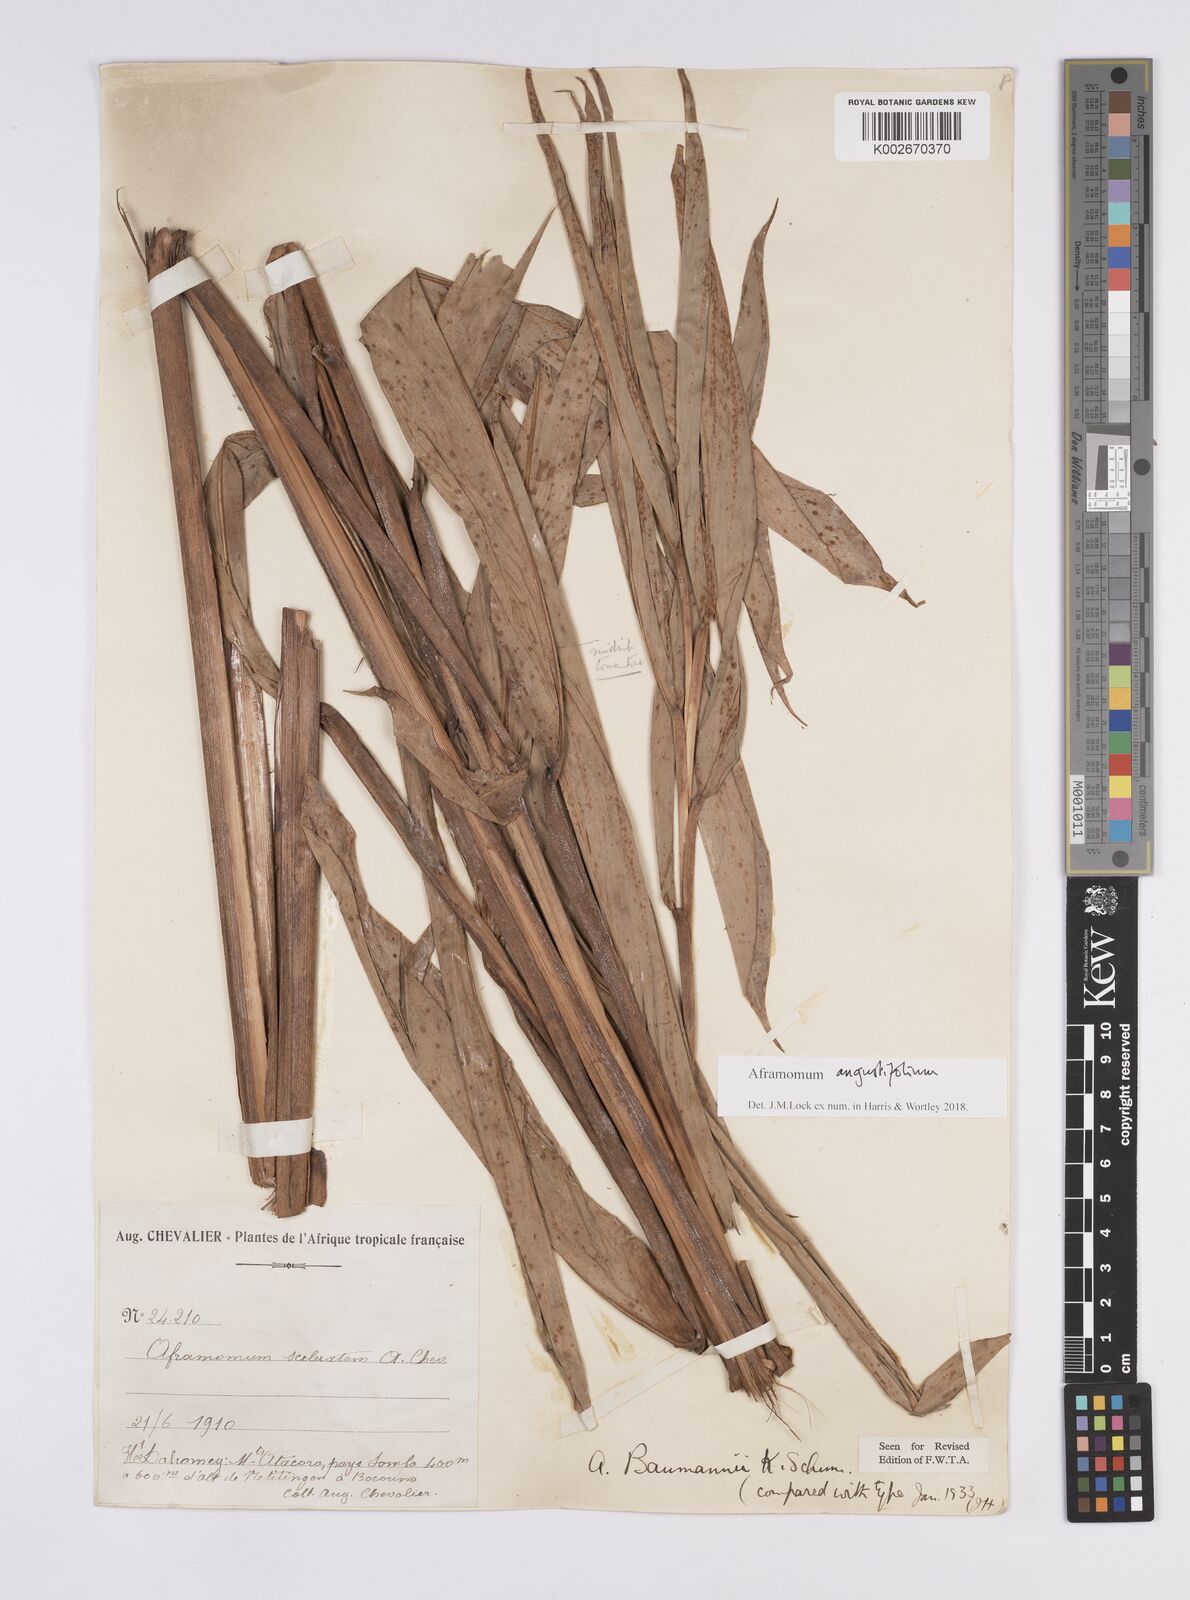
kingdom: Plantae
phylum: Tracheophyta
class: Liliopsida
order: Zingiberales
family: Zingiberaceae
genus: Aframomum
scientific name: Aframomum angustifolium
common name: Guinea grains
